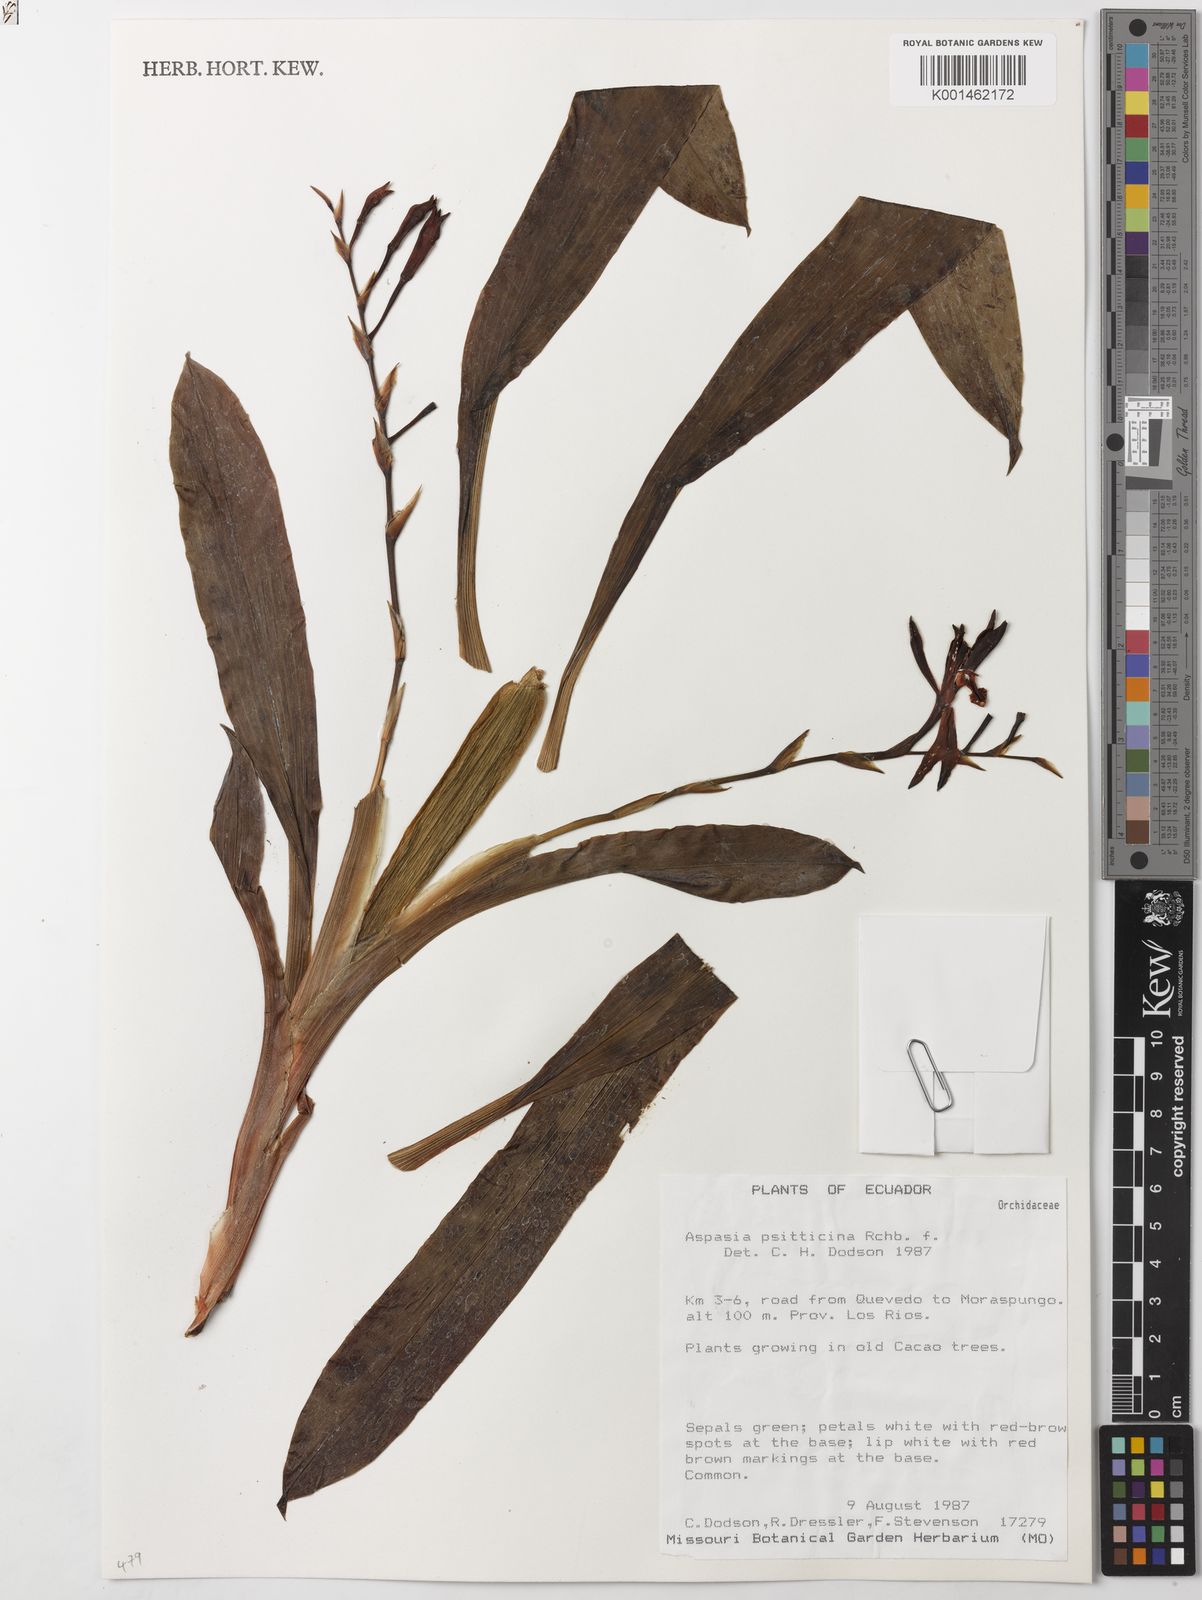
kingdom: Plantae
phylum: Tracheophyta
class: Liliopsida
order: Asparagales
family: Orchidaceae
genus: Aspasia
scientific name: Aspasia psittacina
